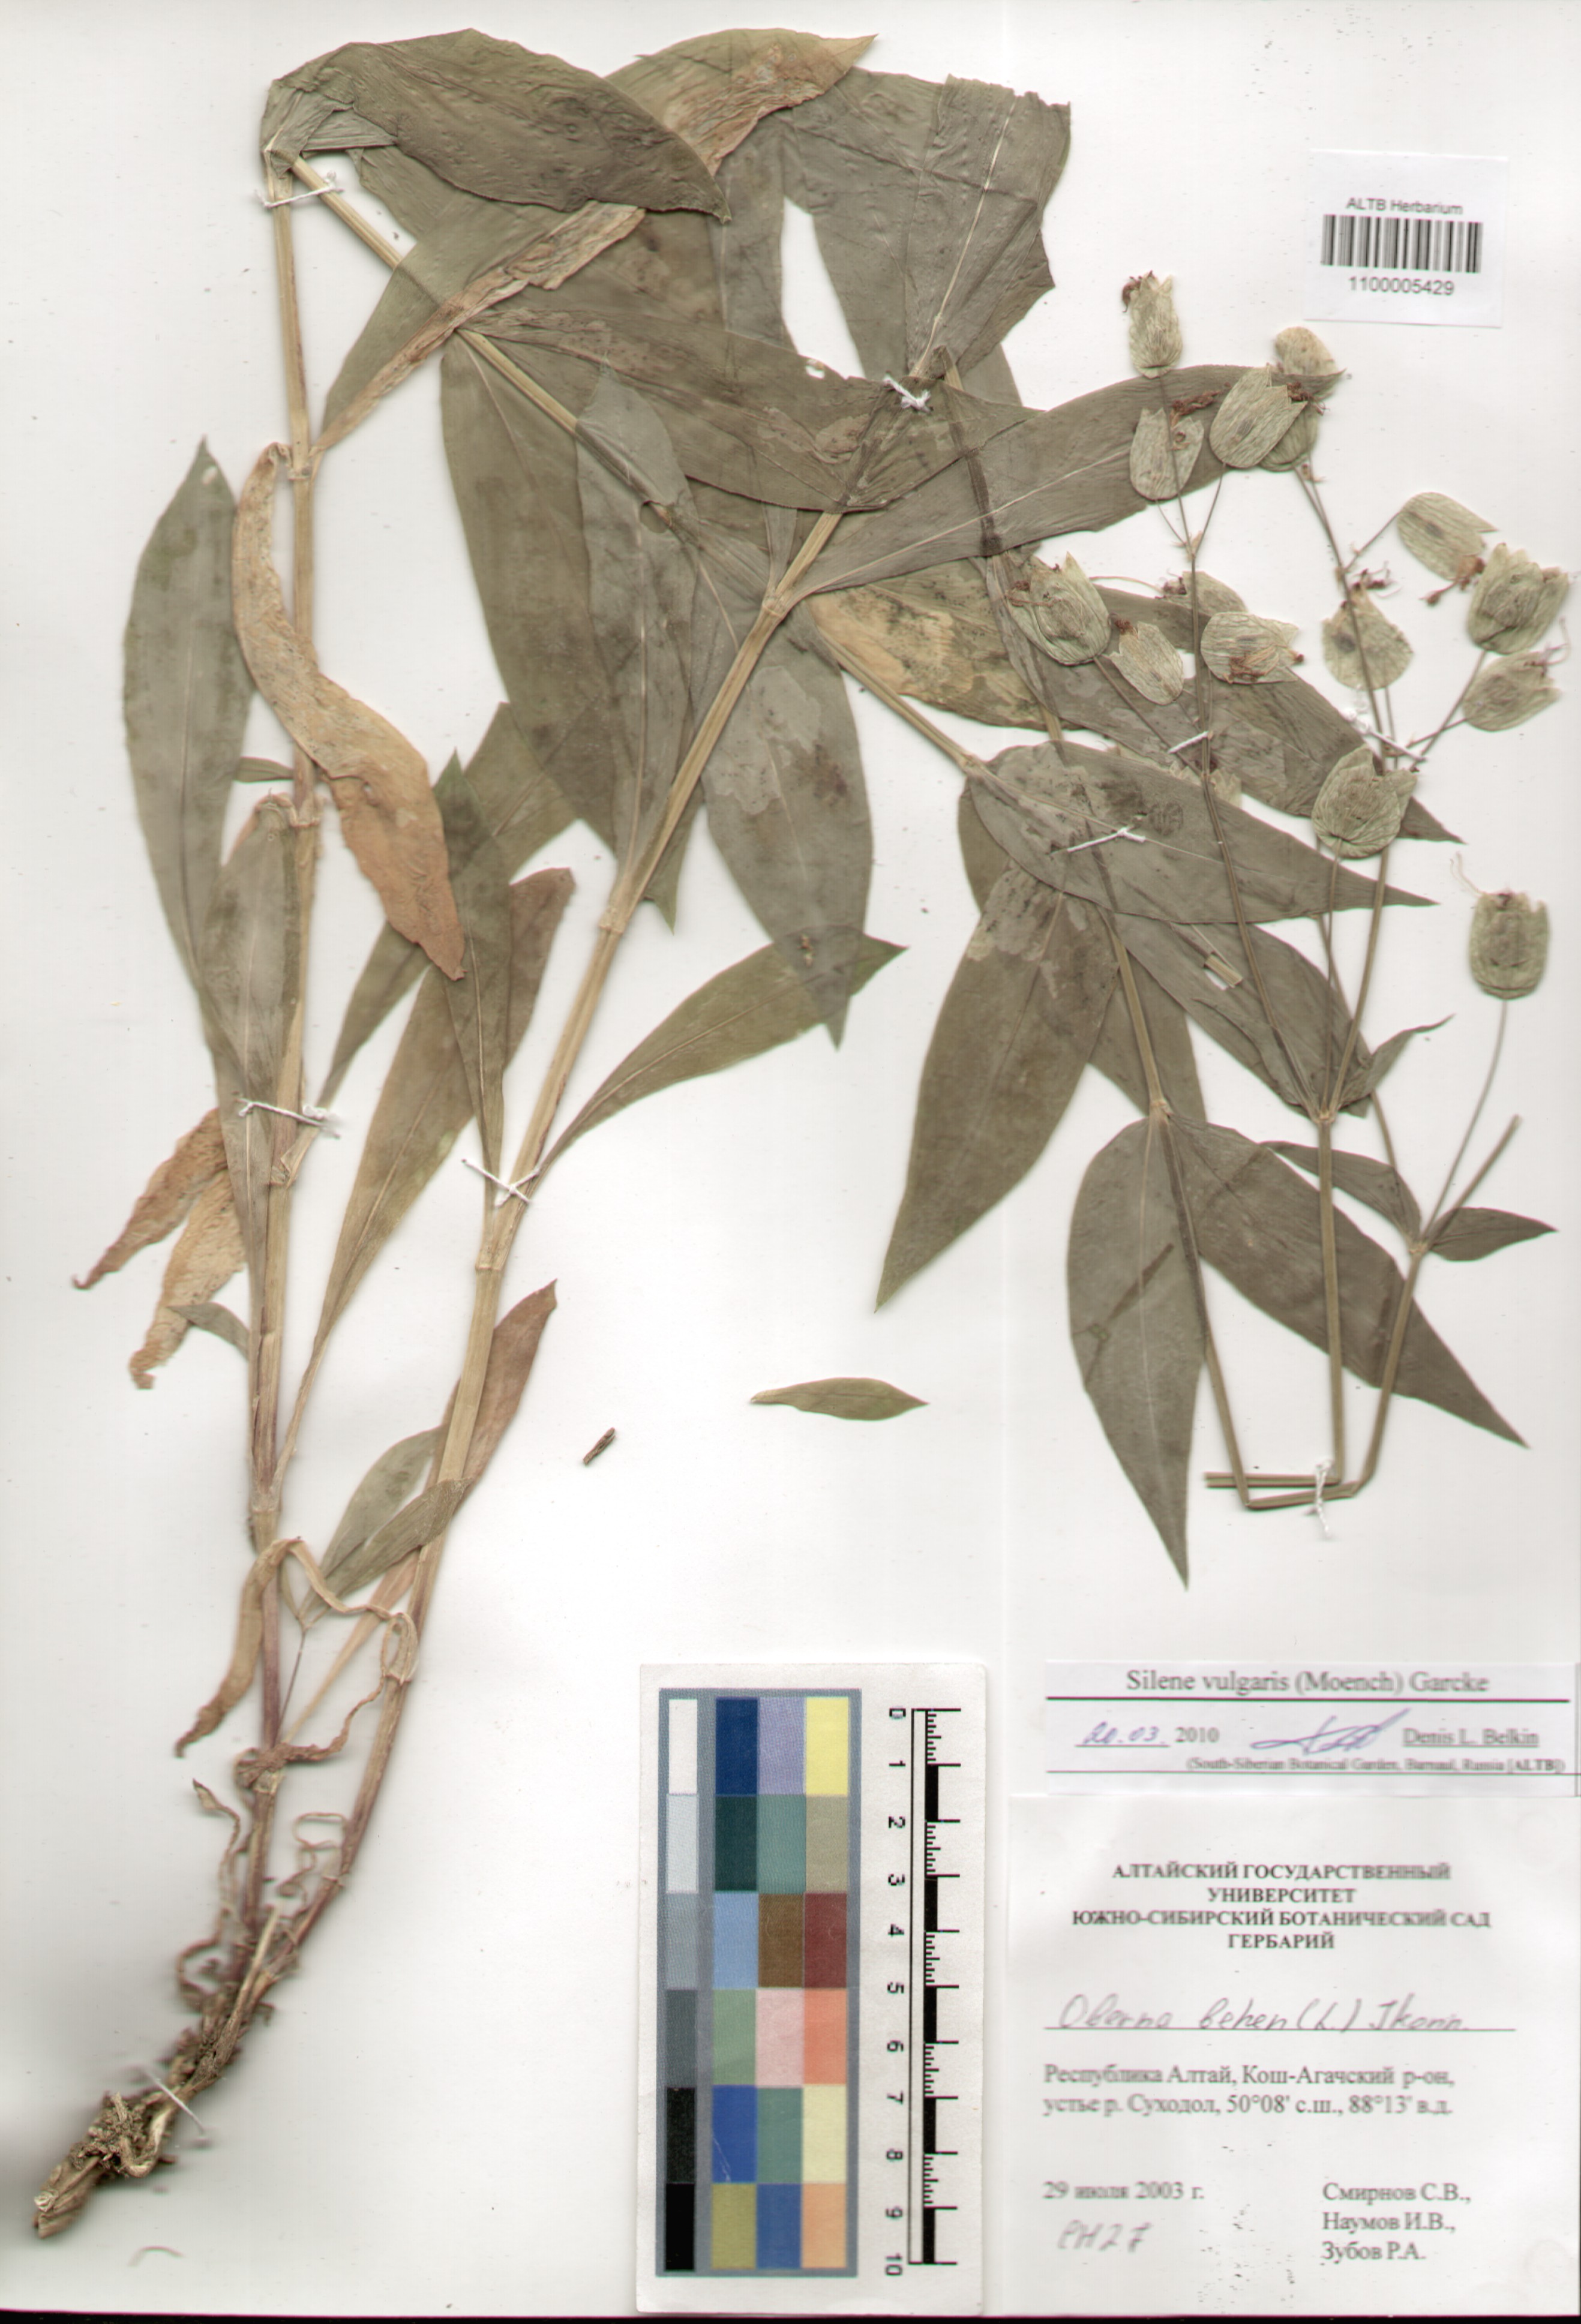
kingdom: Plantae
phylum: Tracheophyta
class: Magnoliopsida
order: Caryophyllales
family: Caryophyllaceae
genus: Silene
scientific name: Silene vulgaris
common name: Bladder campion
